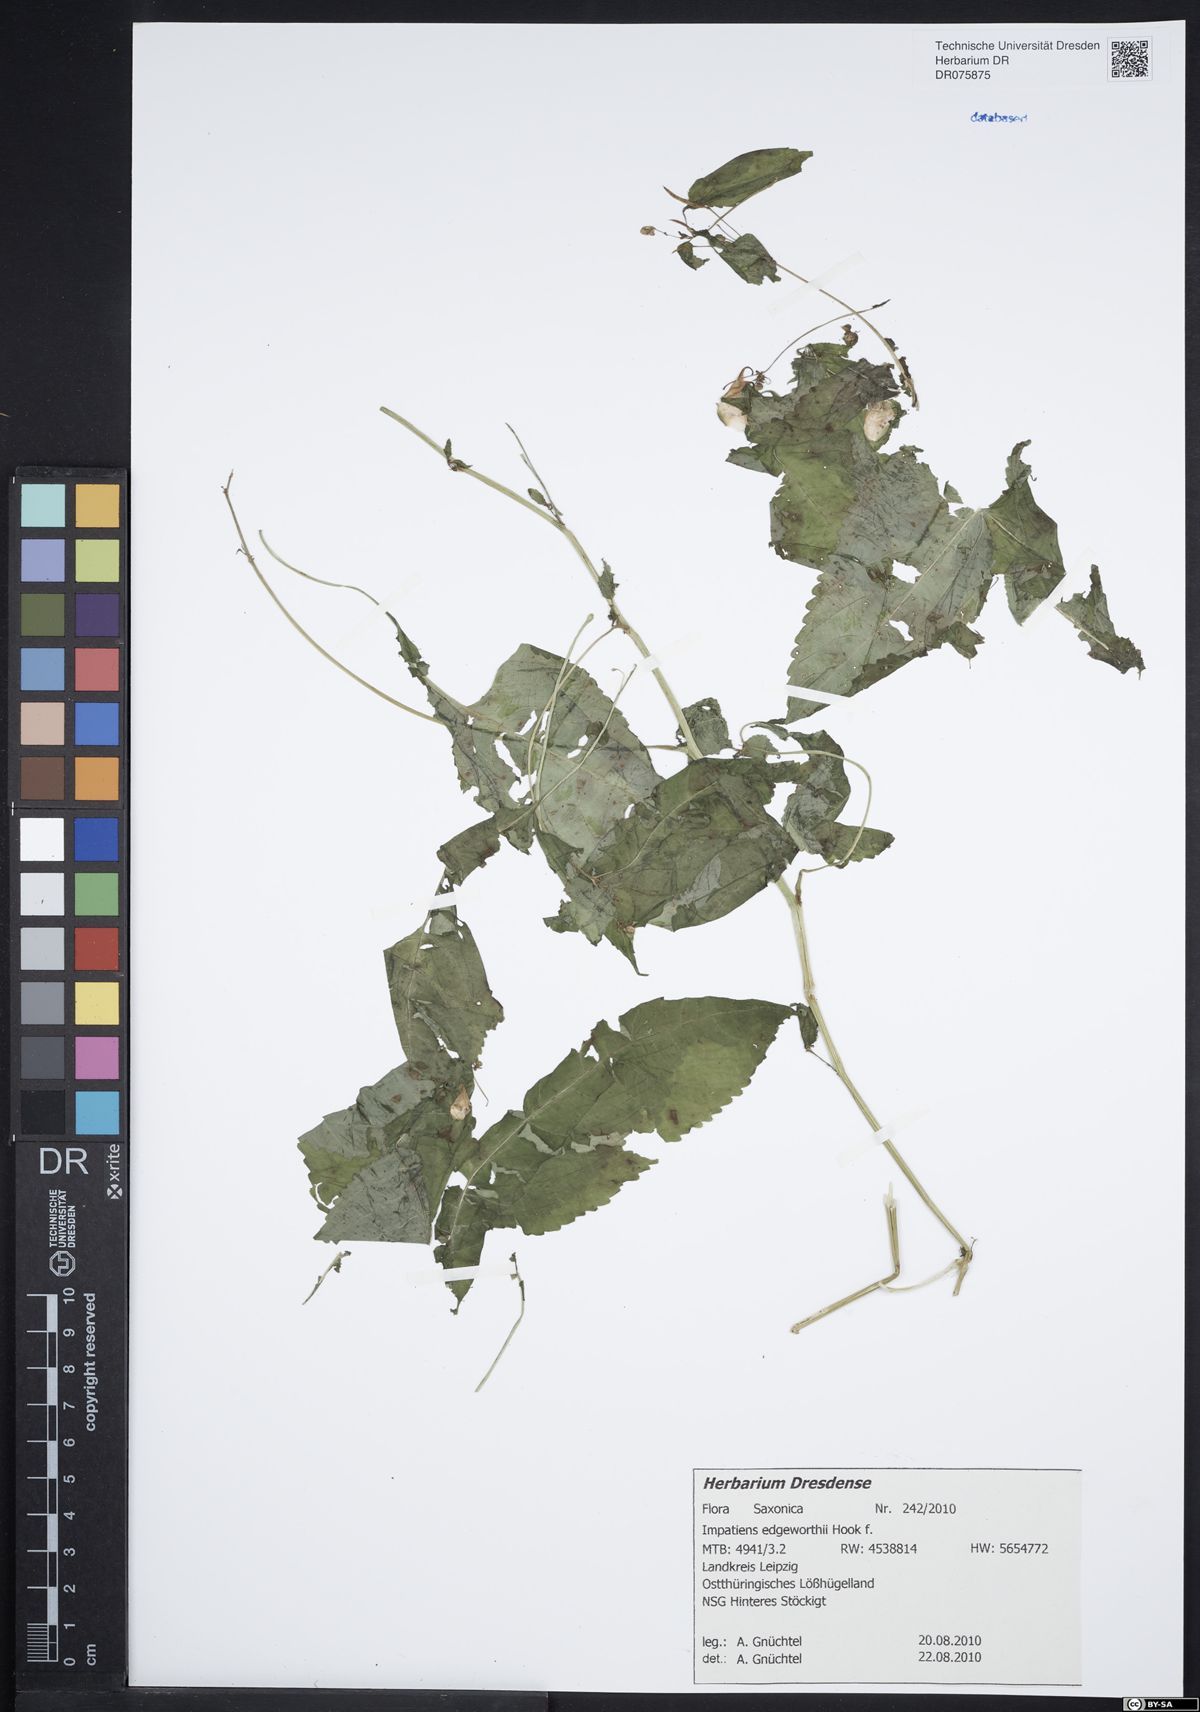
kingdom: Plantae
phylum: Tracheophyta
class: Magnoliopsida
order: Ericales
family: Balsaminaceae
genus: Impatiens
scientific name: Impatiens edgeworthii
